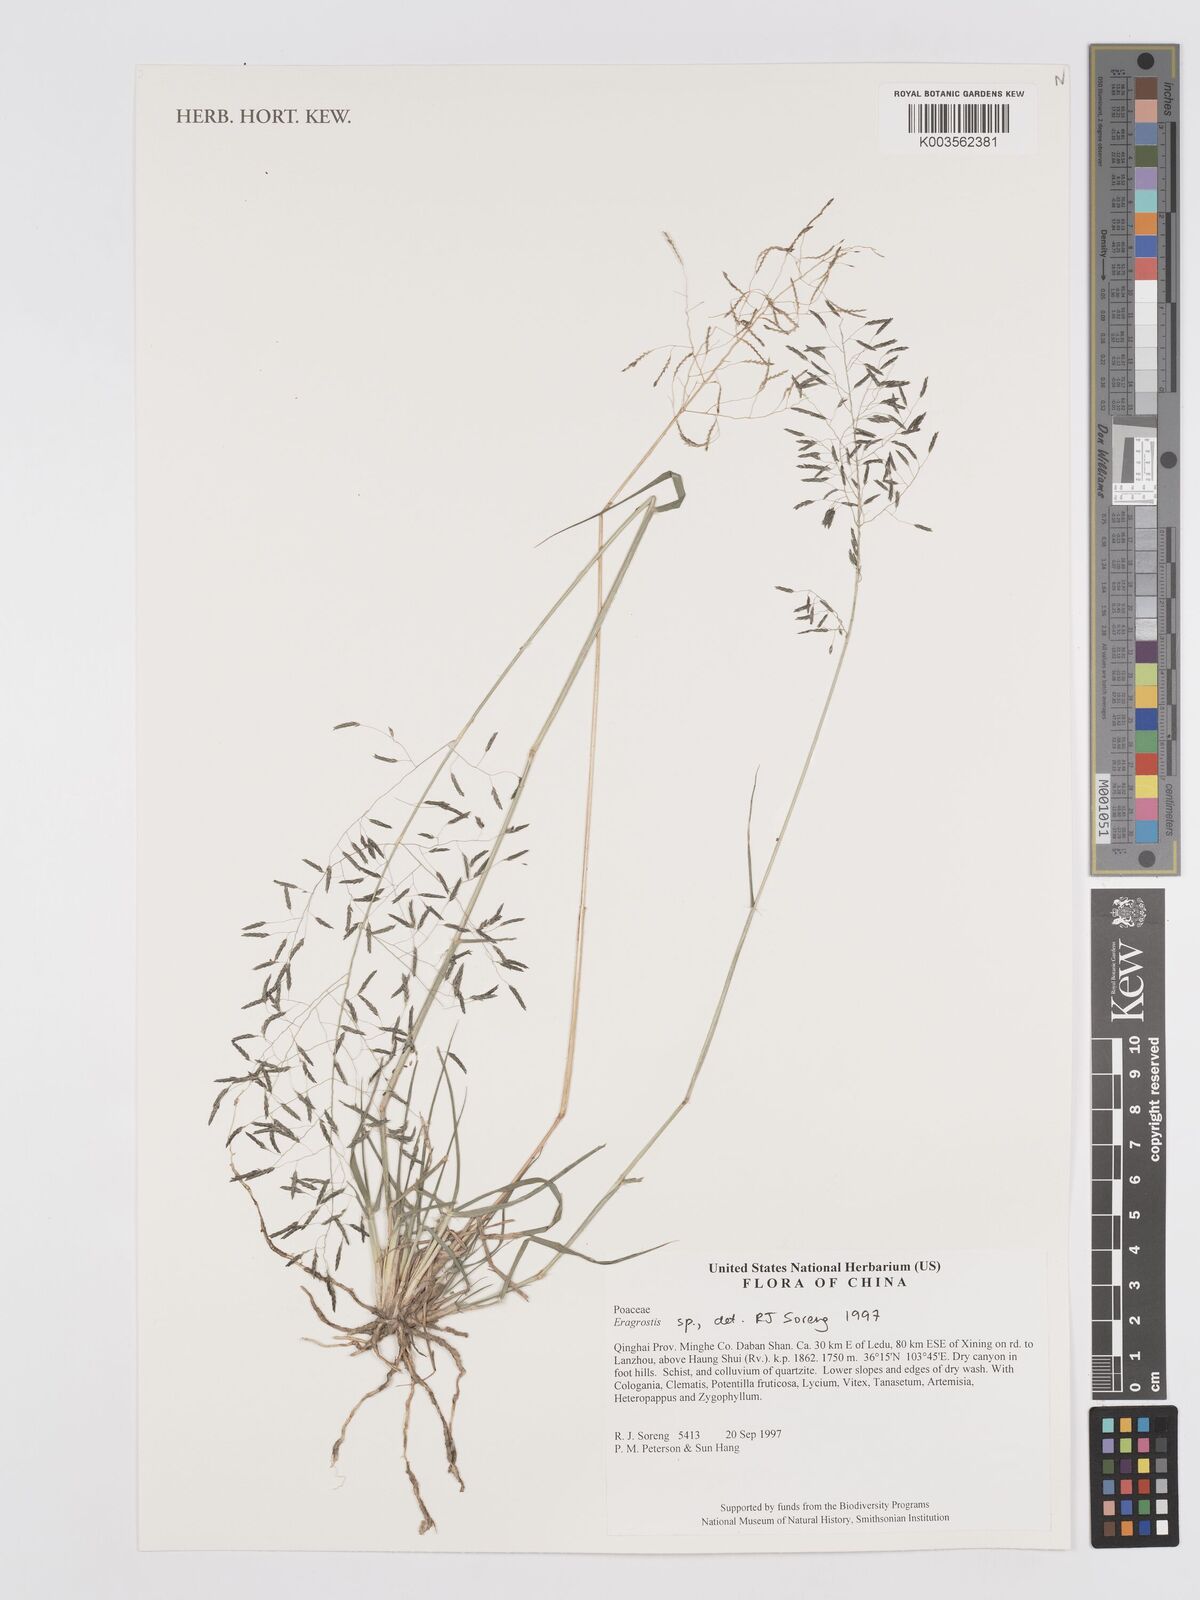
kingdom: Plantae
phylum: Tracheophyta
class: Liliopsida
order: Poales
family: Poaceae
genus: Eragrostis
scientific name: Eragrostis
